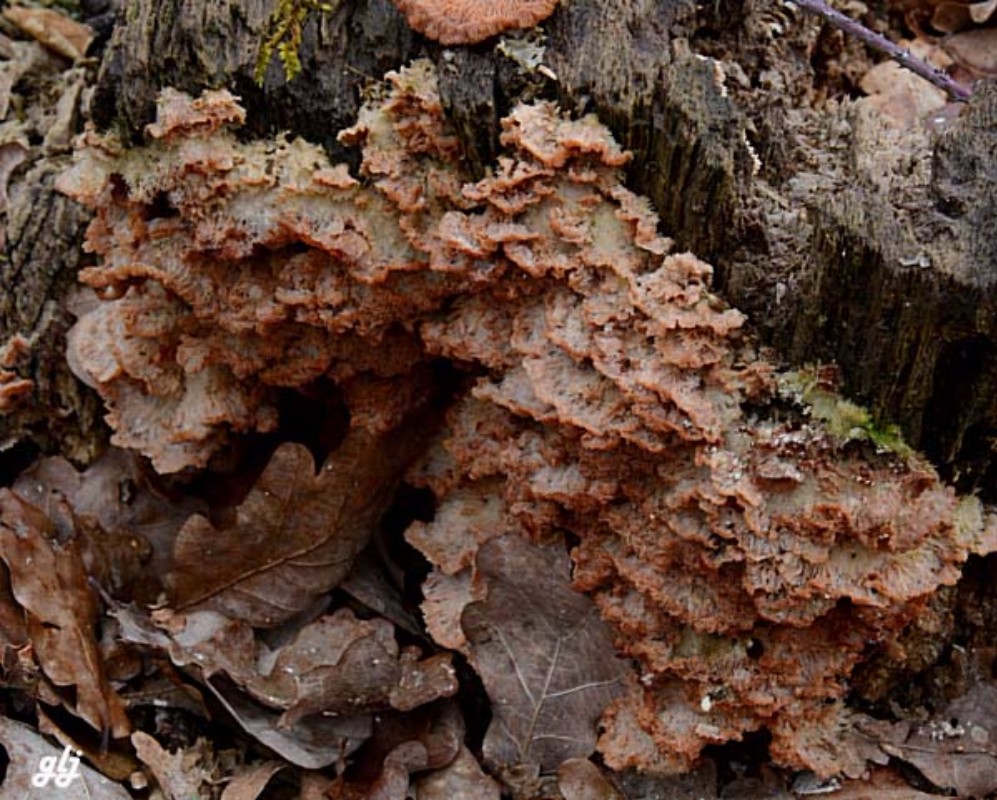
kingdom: Fungi
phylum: Basidiomycota
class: Agaricomycetes
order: Polyporales
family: Meruliaceae
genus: Phlebia
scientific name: Phlebia tremellosa
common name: bævrende åresvamp
